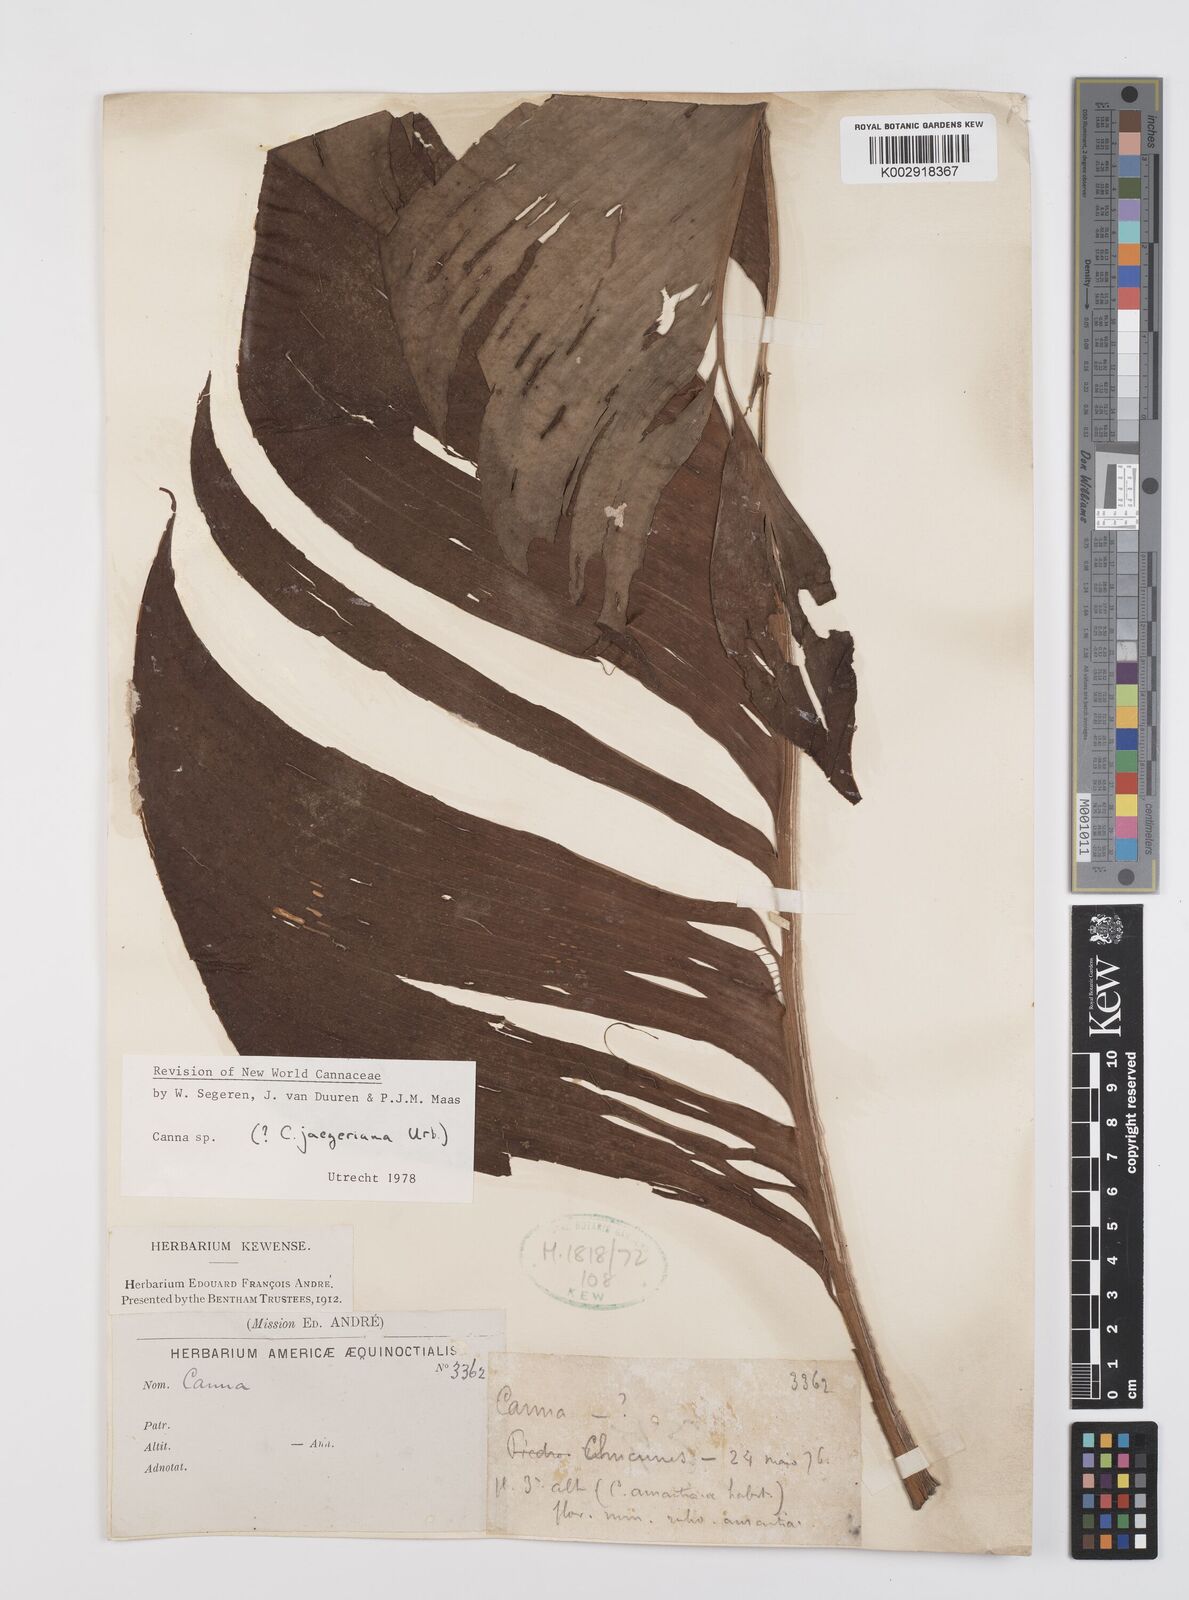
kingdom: Plantae
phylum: Tracheophyta
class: Liliopsida
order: Zingiberales
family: Cannaceae
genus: Canna
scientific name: Canna jaegeriana
